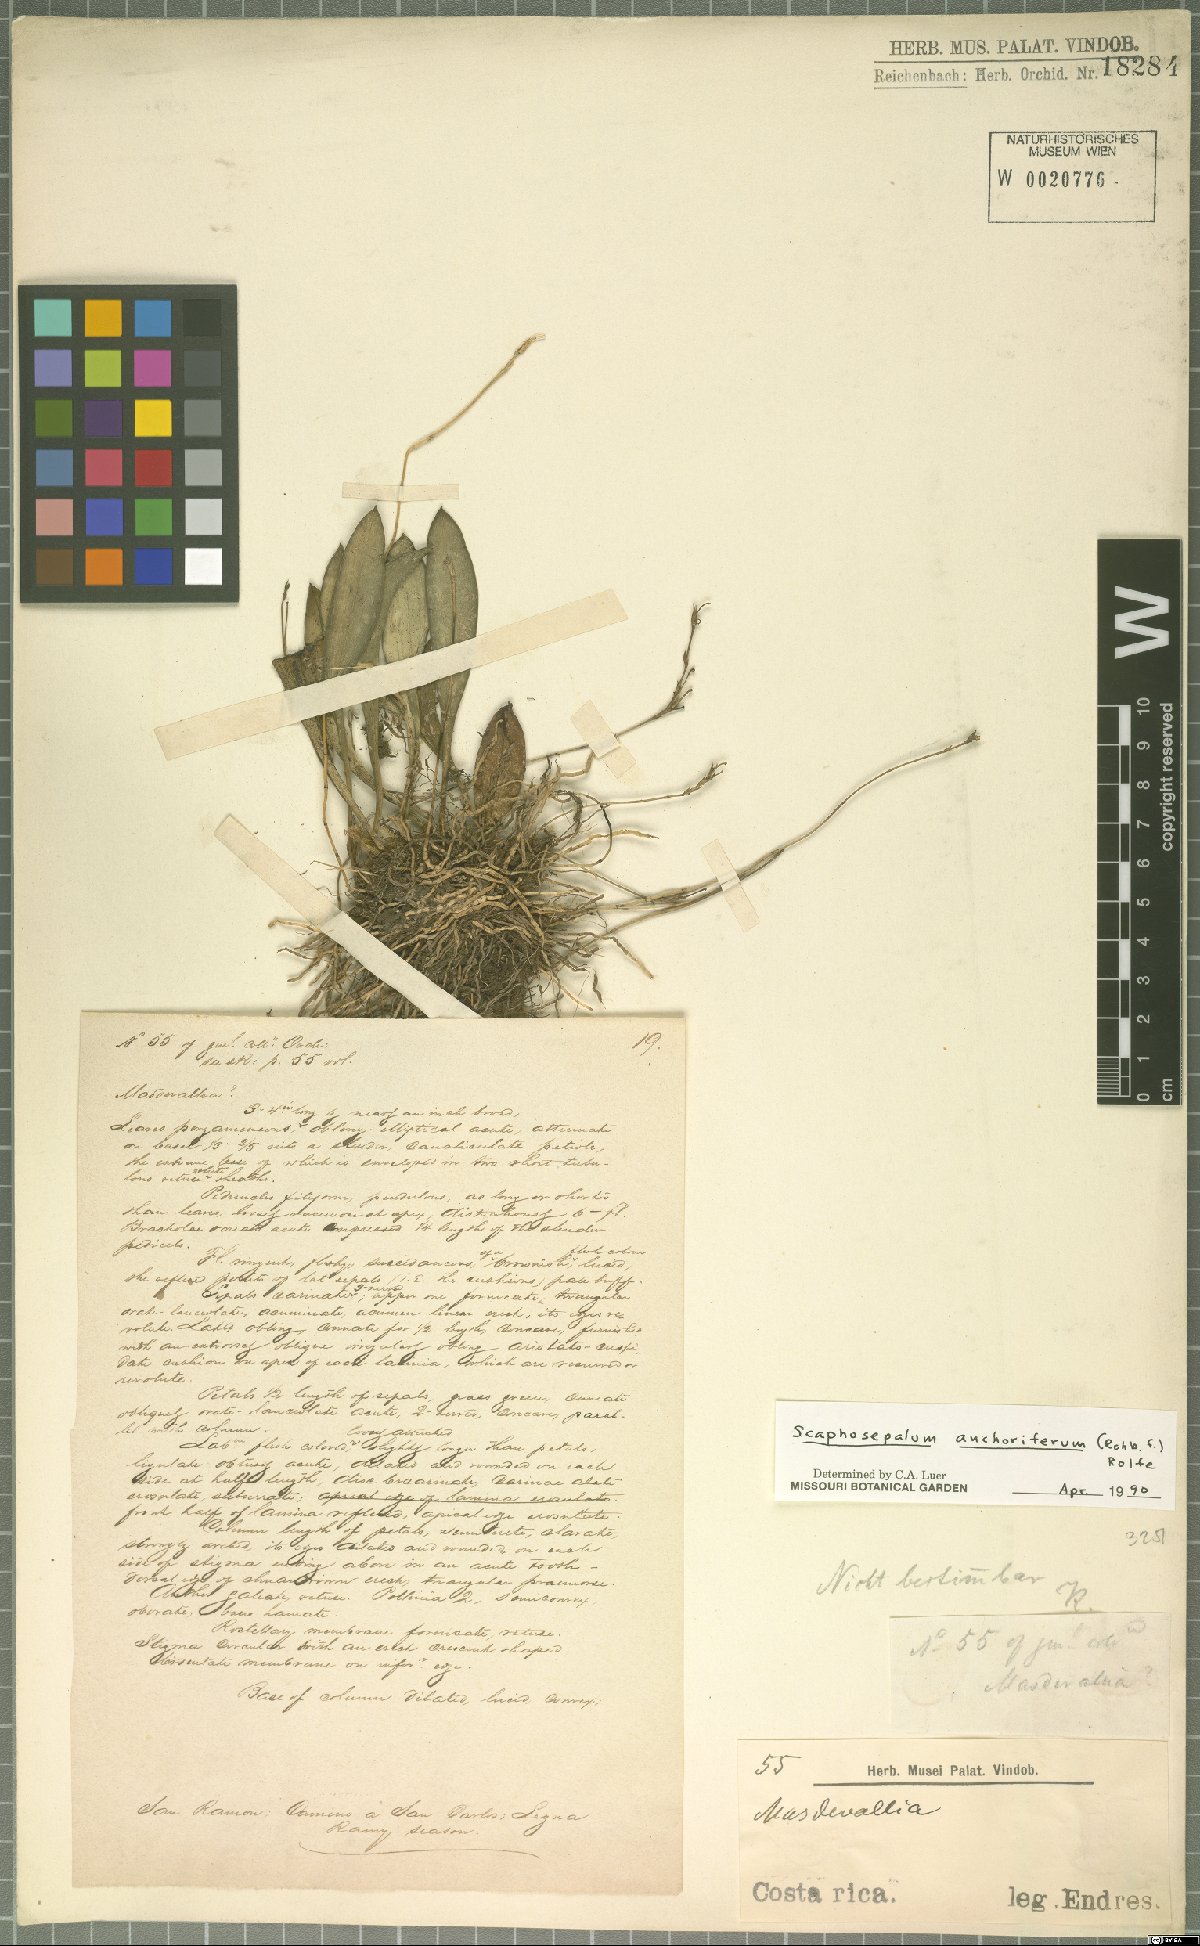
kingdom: Plantae
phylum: Tracheophyta
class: Liliopsida
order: Asparagales
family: Orchidaceae
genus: Scaphosepalum
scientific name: Scaphosepalum anchoriferum
